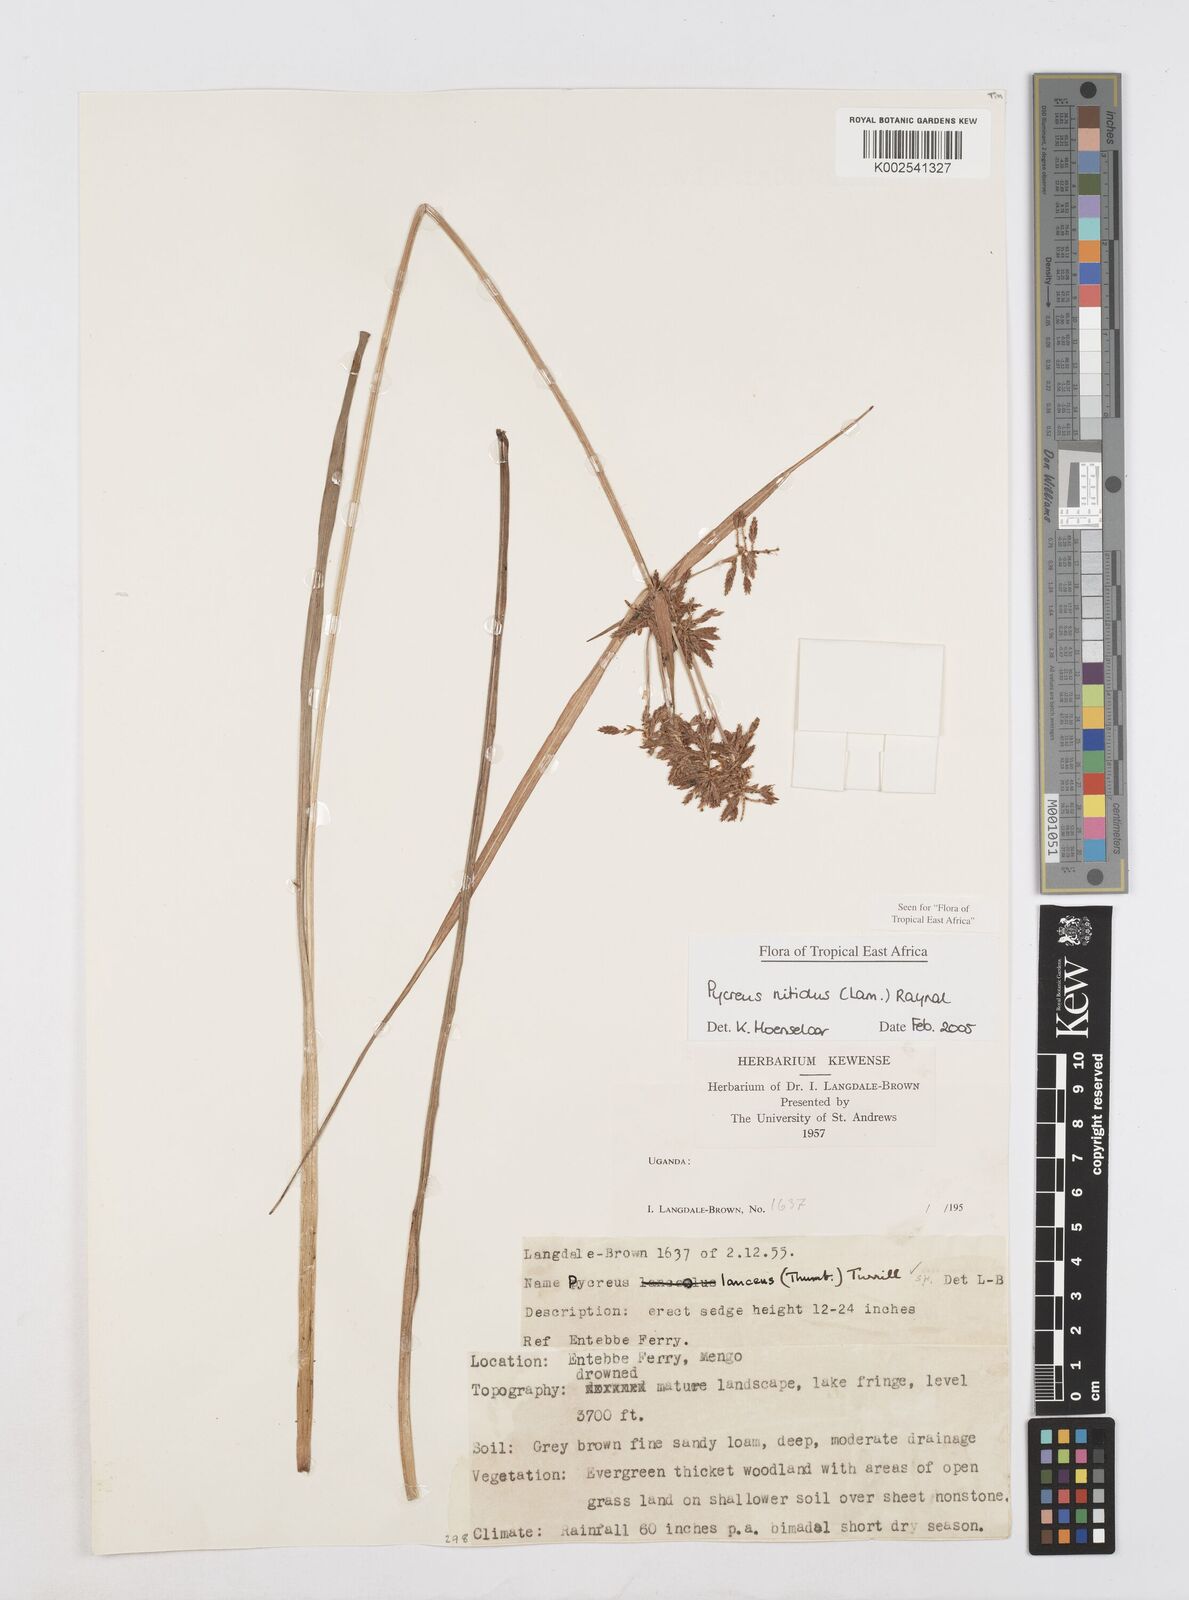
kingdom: Plantae
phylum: Tracheophyta
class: Liliopsida
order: Poales
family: Cyperaceae
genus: Cyperus
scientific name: Cyperus nitidus
